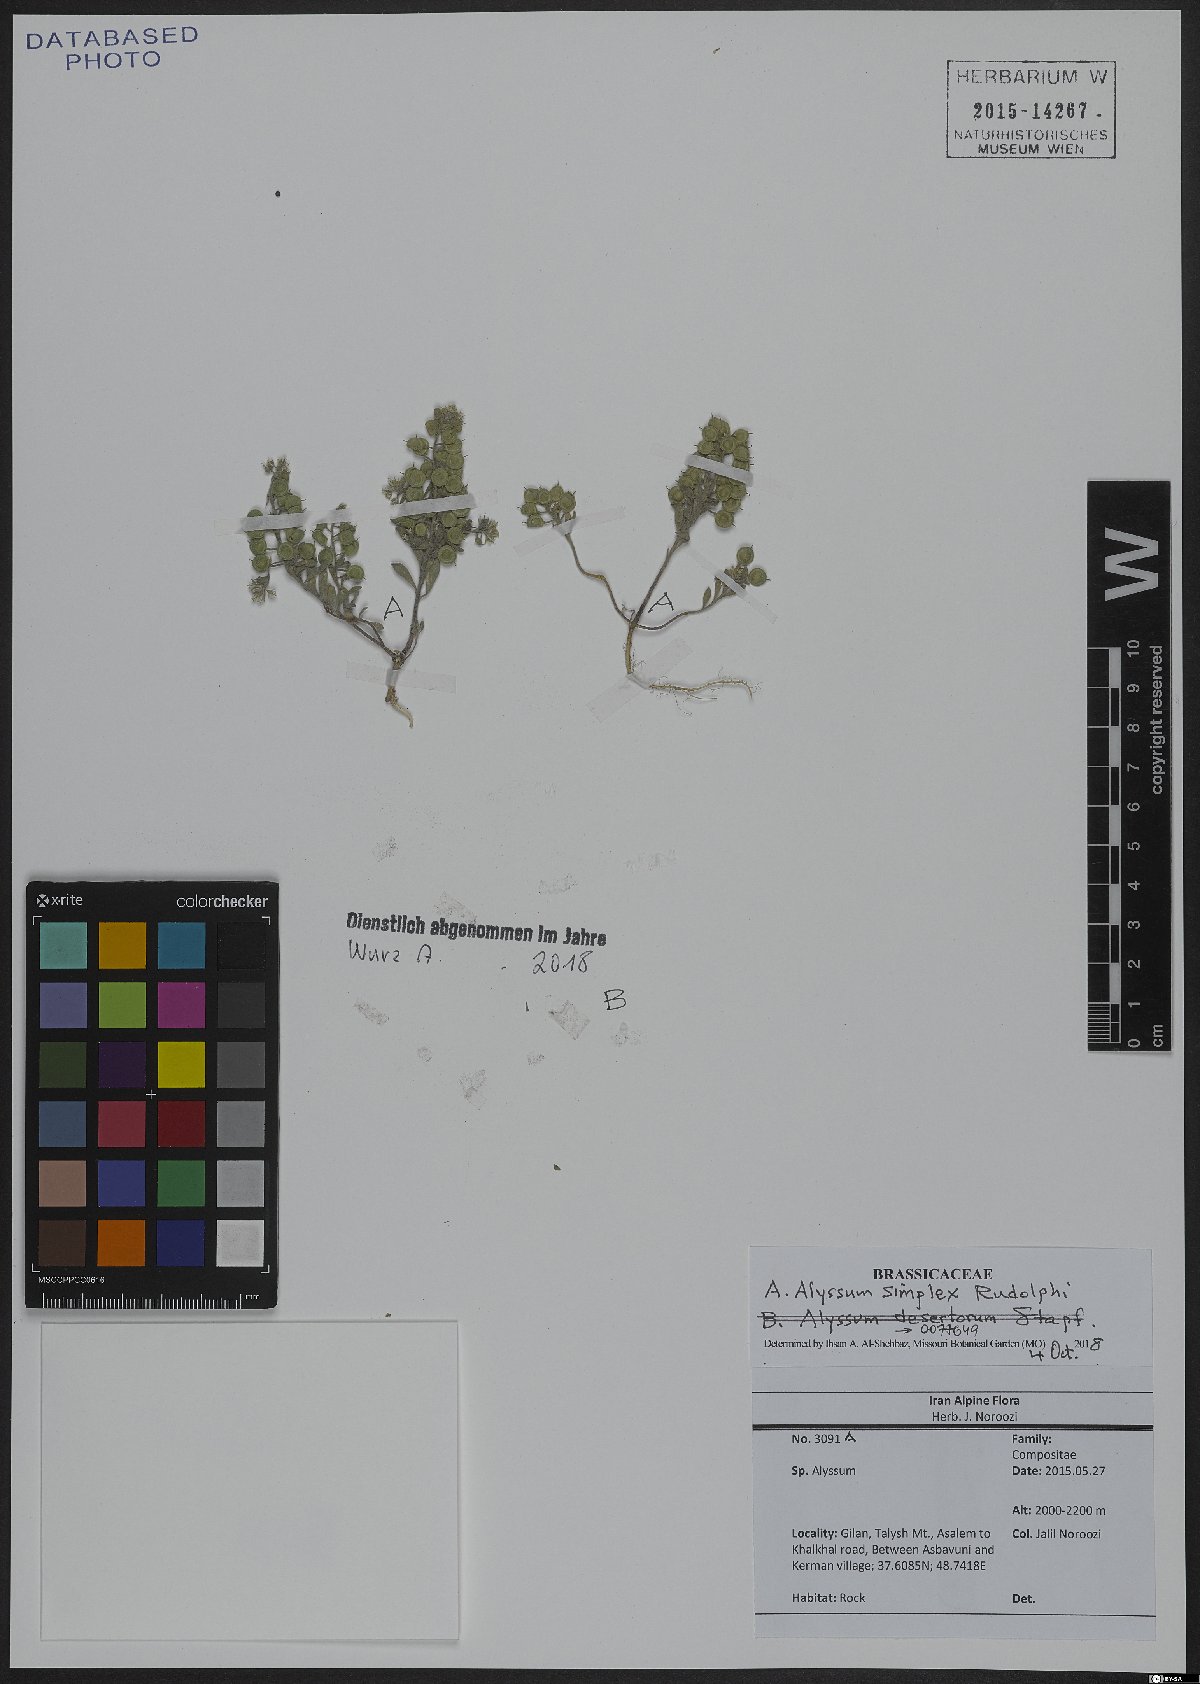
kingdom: Plantae
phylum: Tracheophyta
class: Magnoliopsida
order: Brassicales
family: Brassicaceae
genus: Alyssum
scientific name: Alyssum simplex
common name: Alyssum
